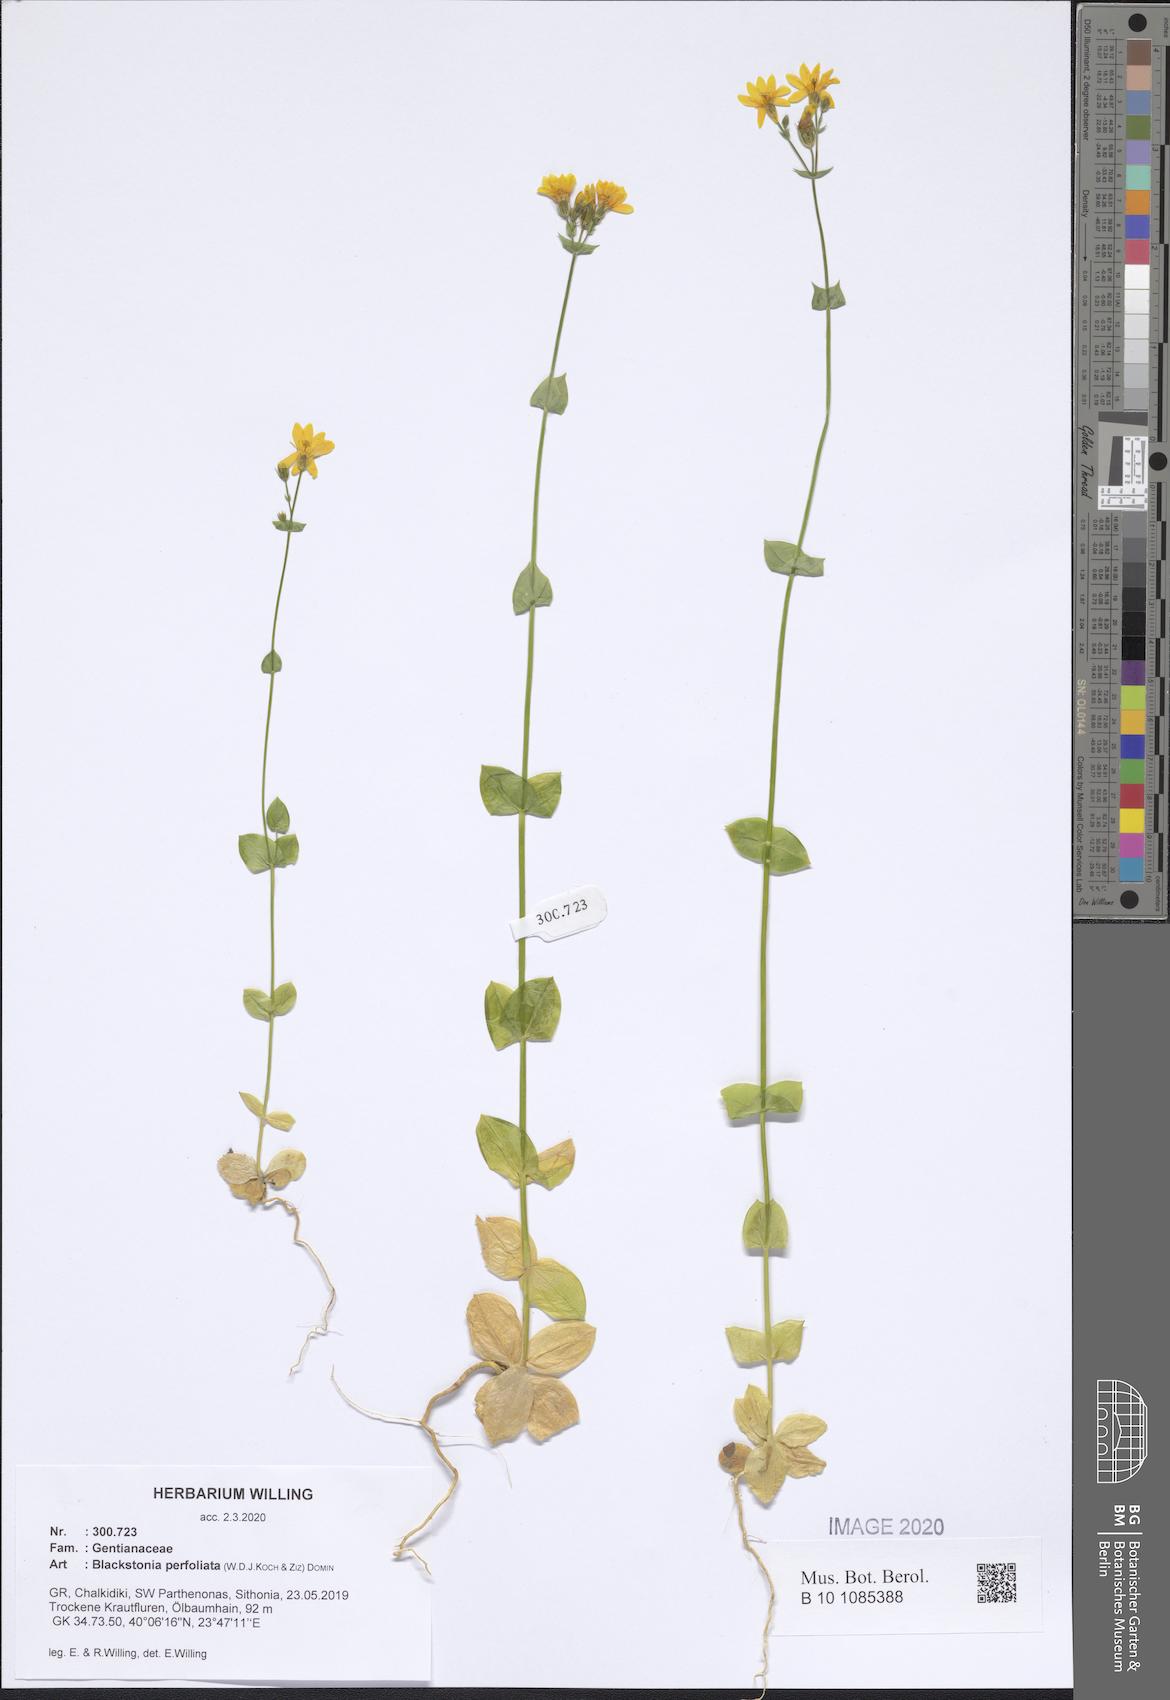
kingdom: Plantae
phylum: Tracheophyta
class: Magnoliopsida
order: Gentianales
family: Gentianaceae
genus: Blackstonia
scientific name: Blackstonia perfoliata
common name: Yellow-wort
